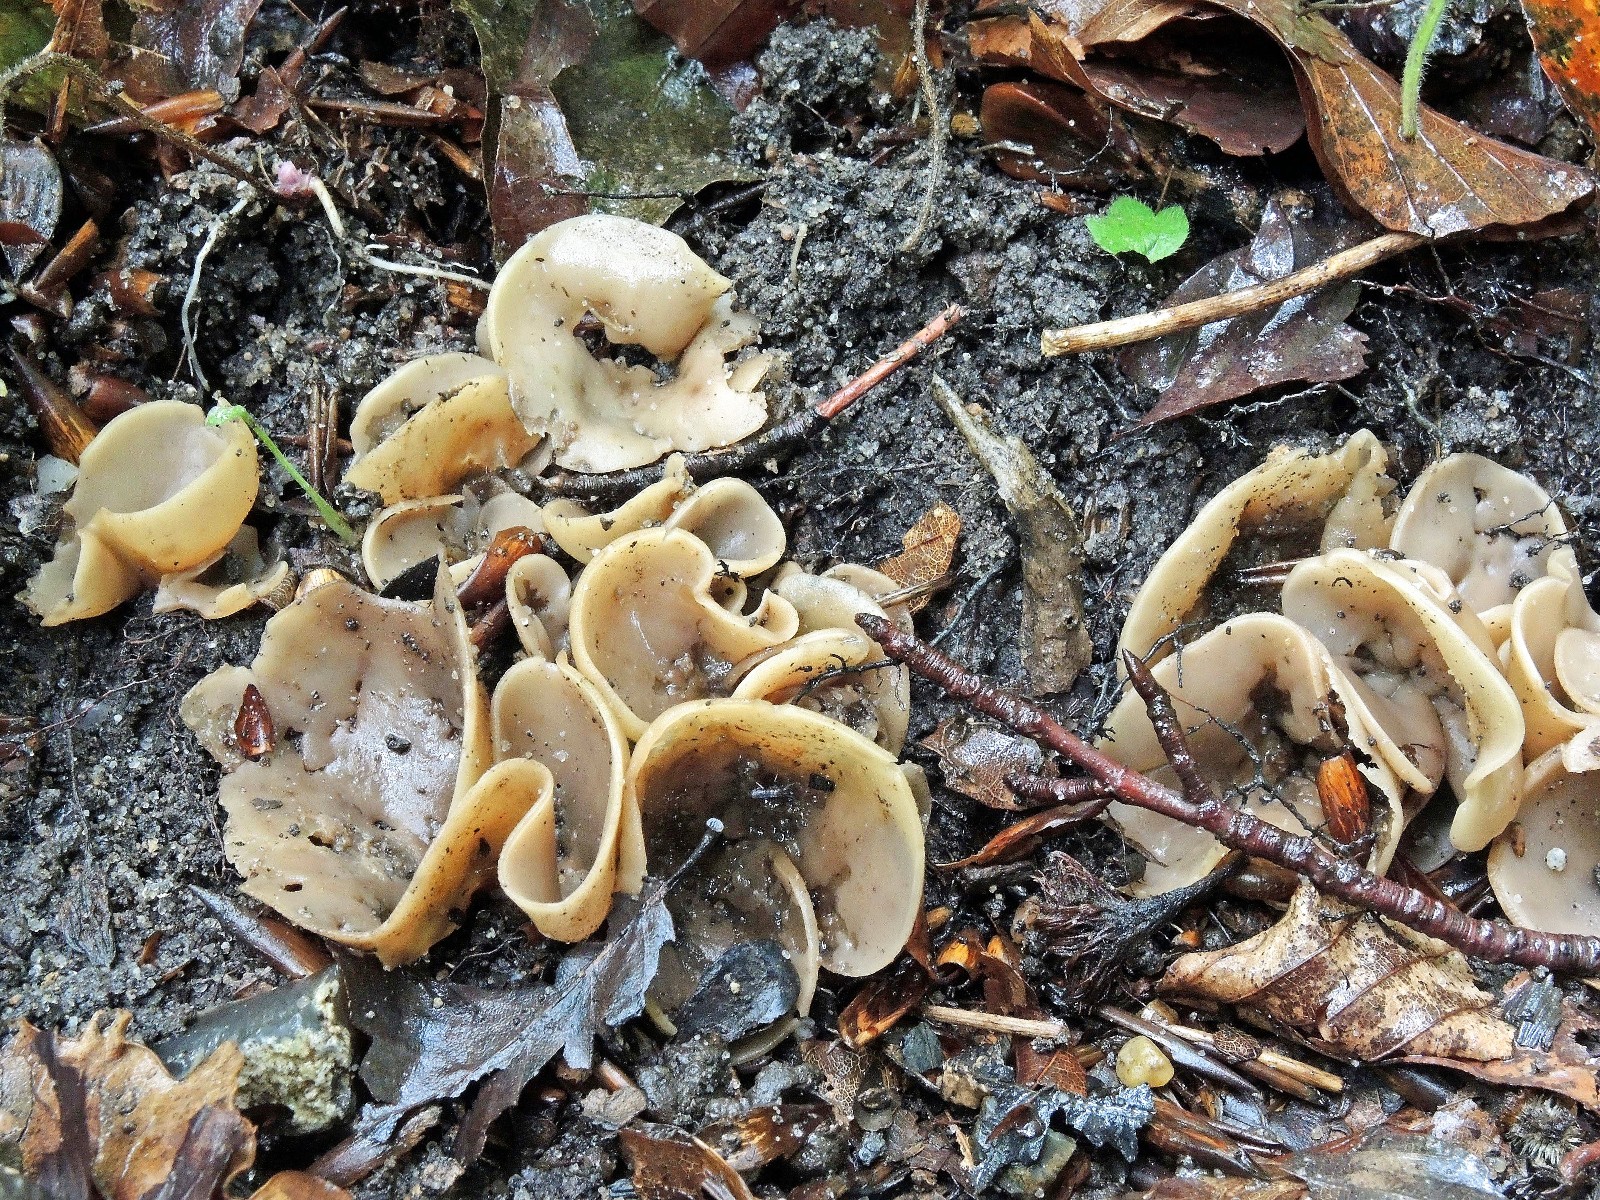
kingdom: Fungi
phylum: Ascomycota
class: Pezizomycetes
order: Pezizales
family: Pezizaceae
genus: Peziza
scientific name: Peziza repanda
